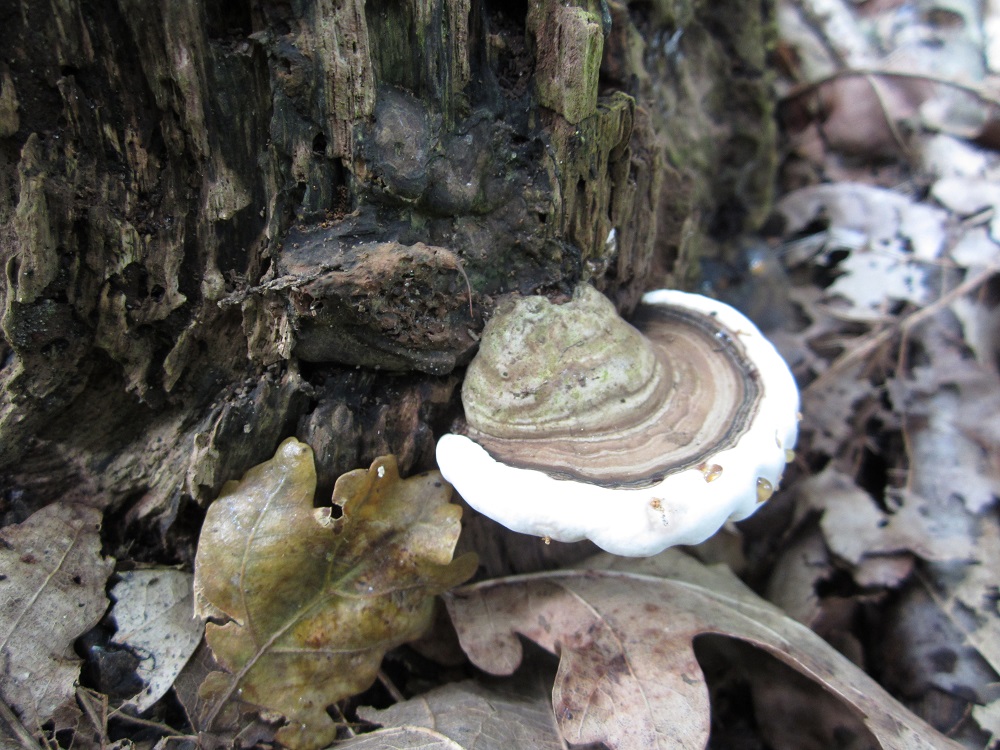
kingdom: Fungi
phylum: Basidiomycota
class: Agaricomycetes
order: Polyporales
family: Polyporaceae
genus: Ganoderma
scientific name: Ganoderma applanatum
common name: flad lakporesvamp
